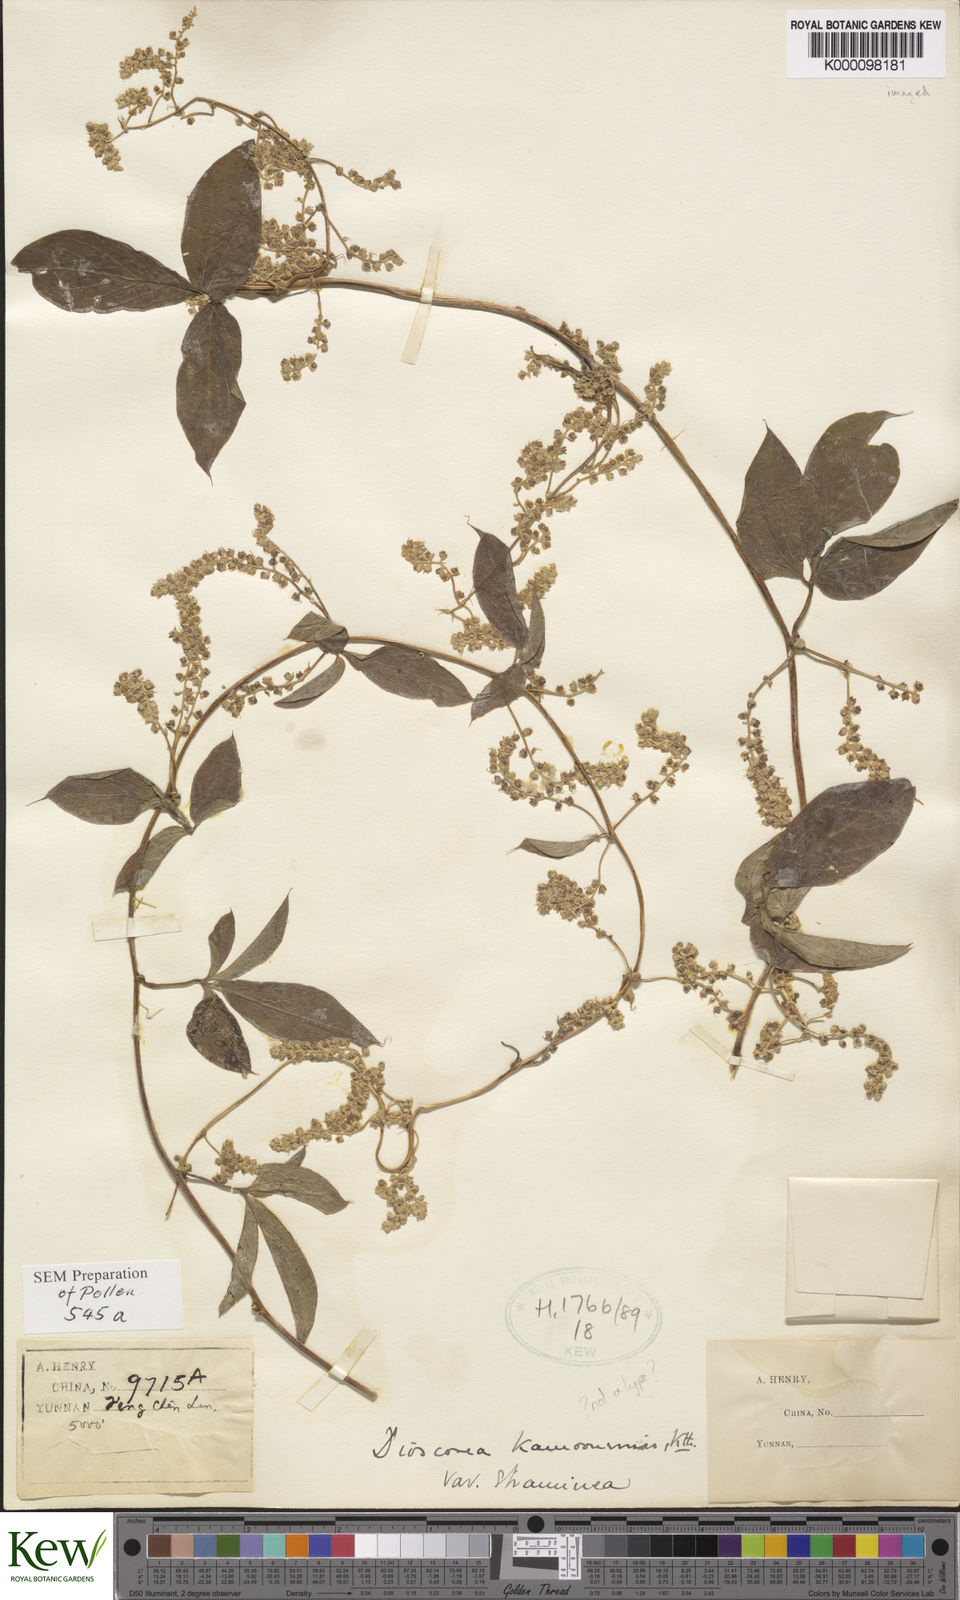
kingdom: Plantae
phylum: Tracheophyta
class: Liliopsida
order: Dioscoreales
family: Dioscoreaceae
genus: Dioscorea
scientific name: Dioscorea kamoonensis
